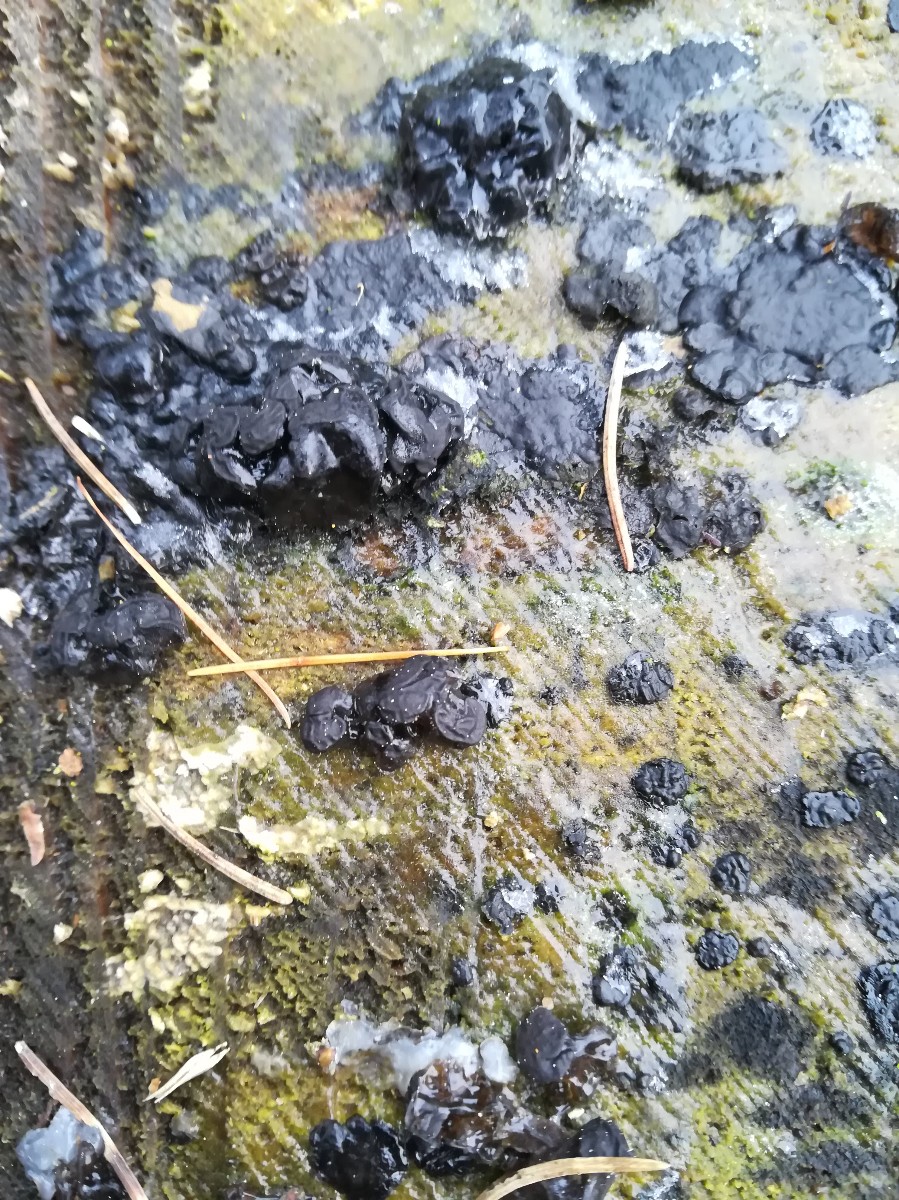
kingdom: Fungi
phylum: Basidiomycota
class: Agaricomycetes
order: Auriculariales
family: Auriculariaceae
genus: Exidia
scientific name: Exidia pithya
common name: gran-bævretop
